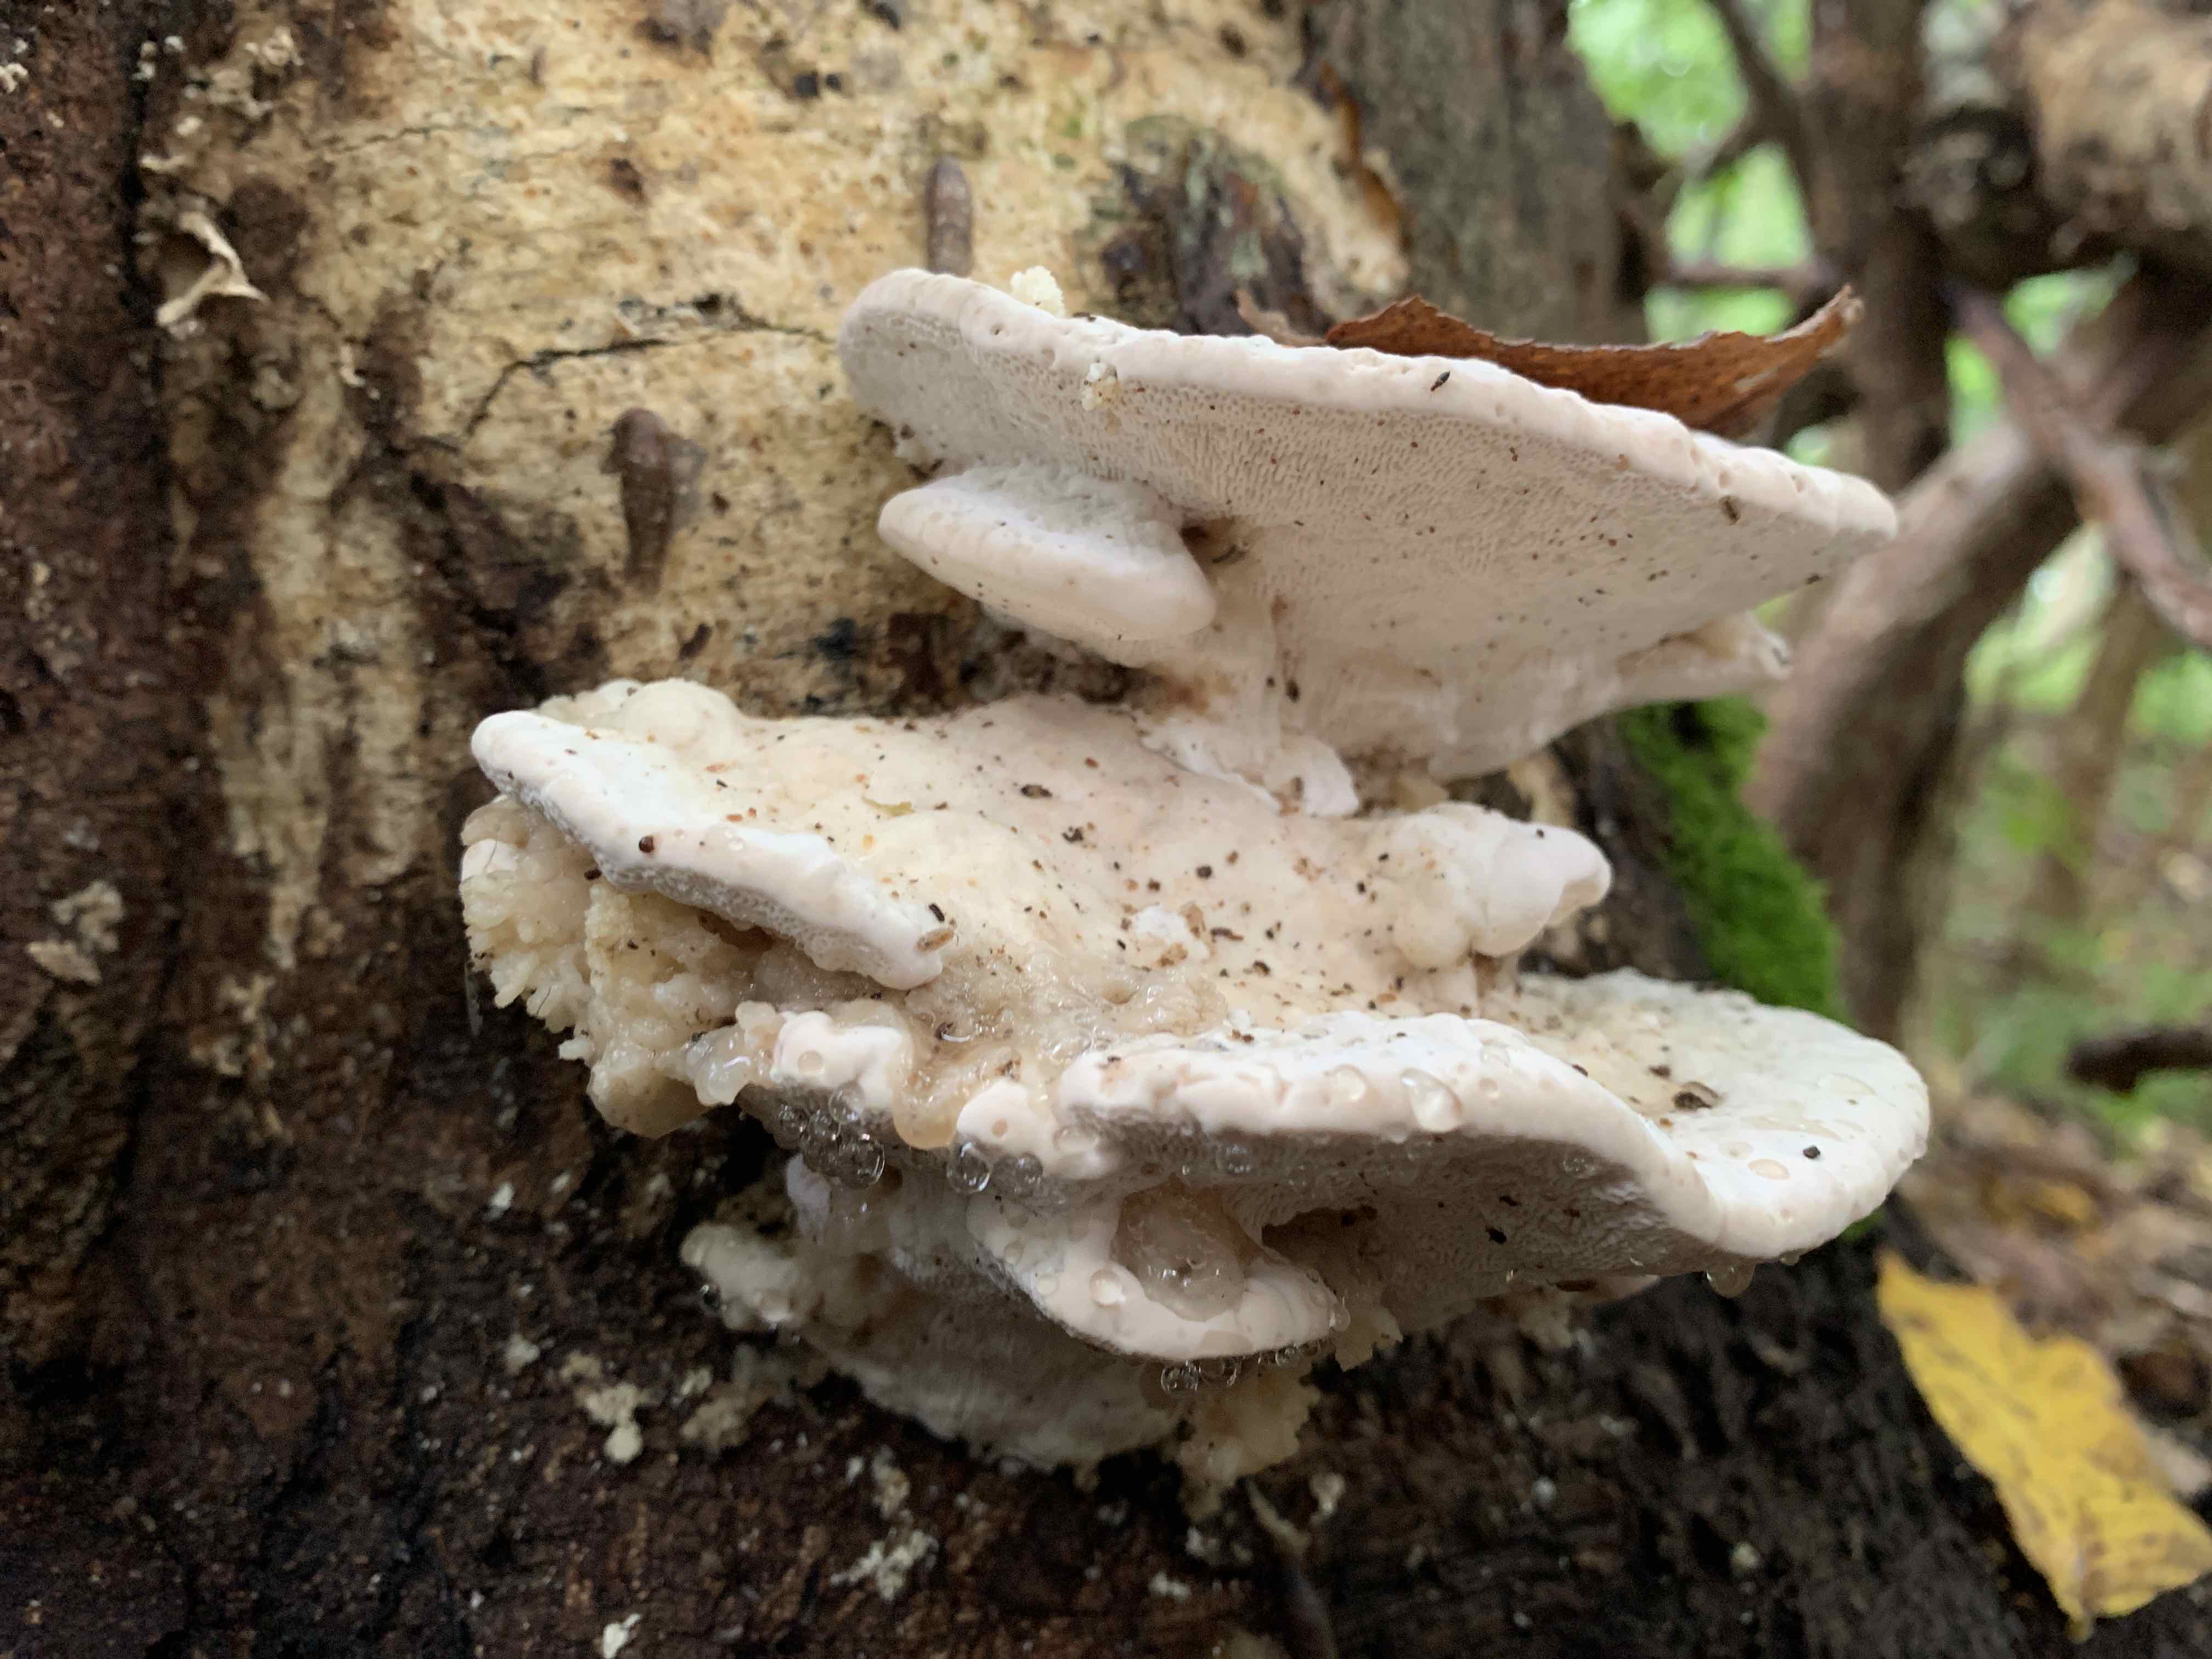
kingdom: Fungi
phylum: Basidiomycota
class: Agaricomycetes
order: Polyporales
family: Polyporaceae
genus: Trametes
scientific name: Trametes gibbosa
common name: puklet læderporesvamp
